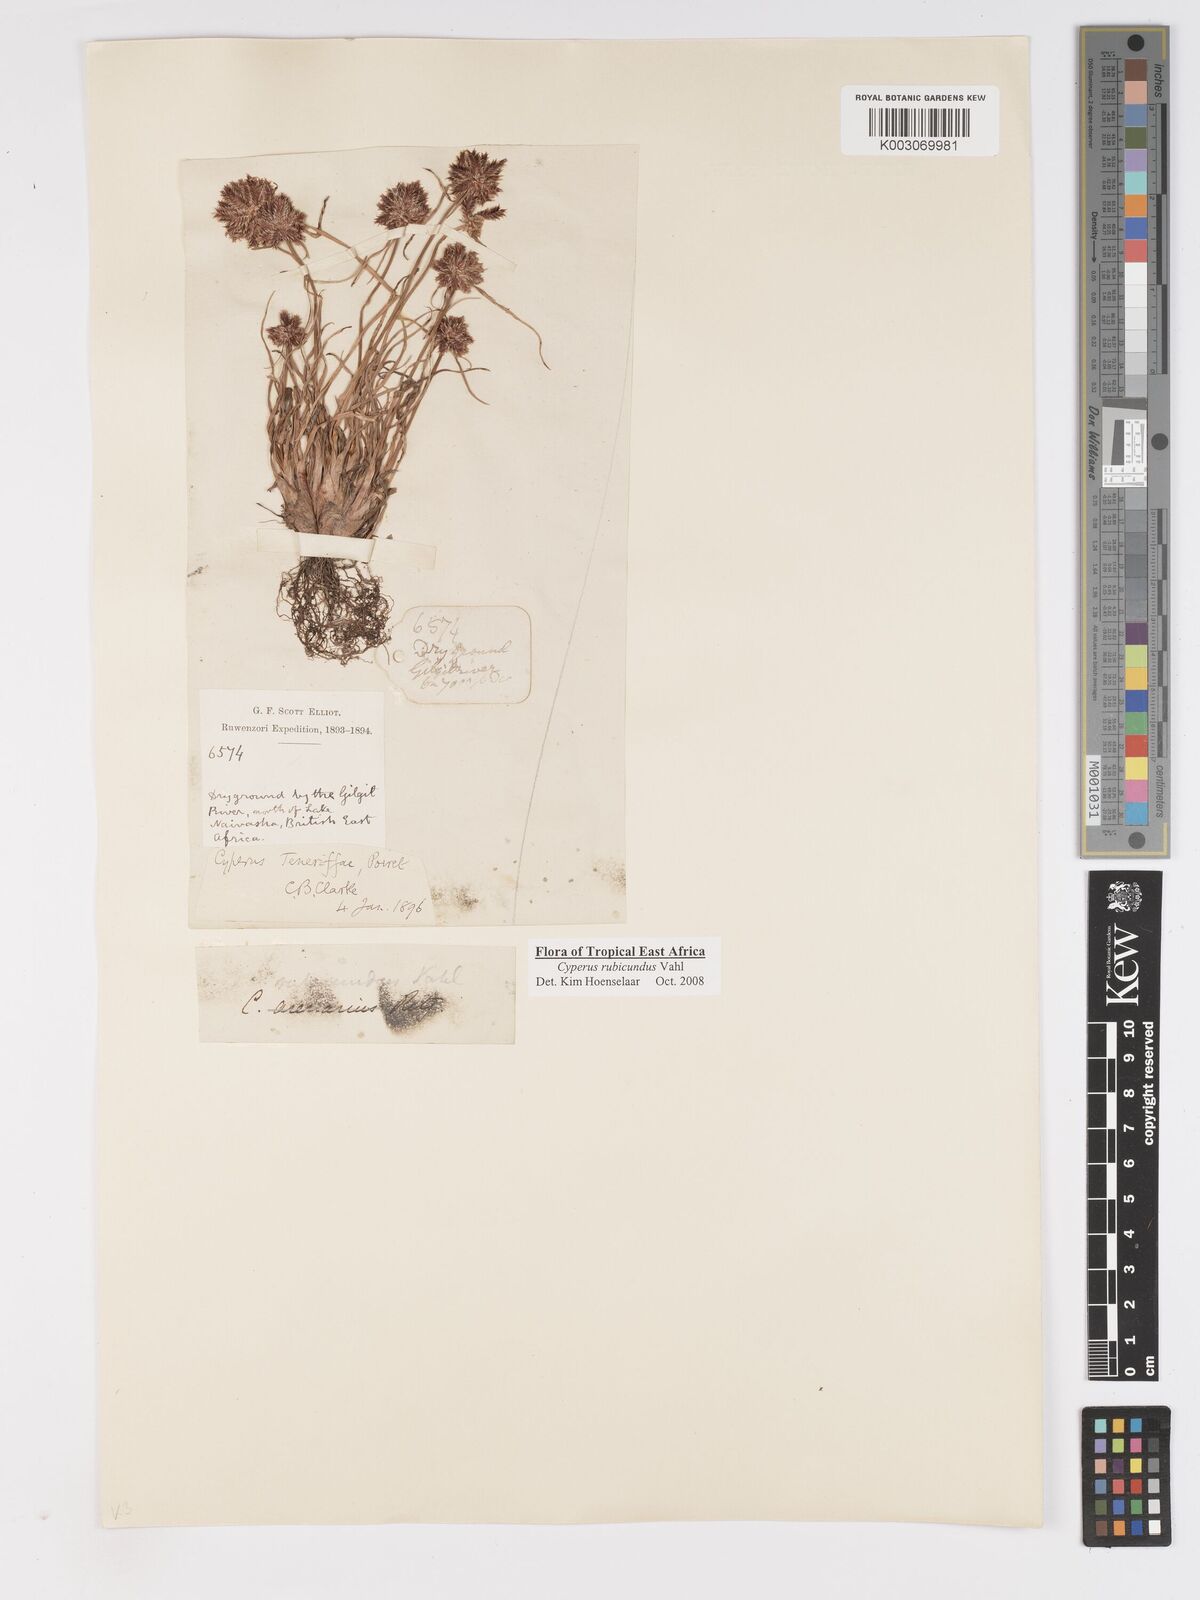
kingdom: Plantae
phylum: Tracheophyta
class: Liliopsida
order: Poales
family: Cyperaceae
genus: Cyperus
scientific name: Cyperus rubicundus
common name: Coco-grass
